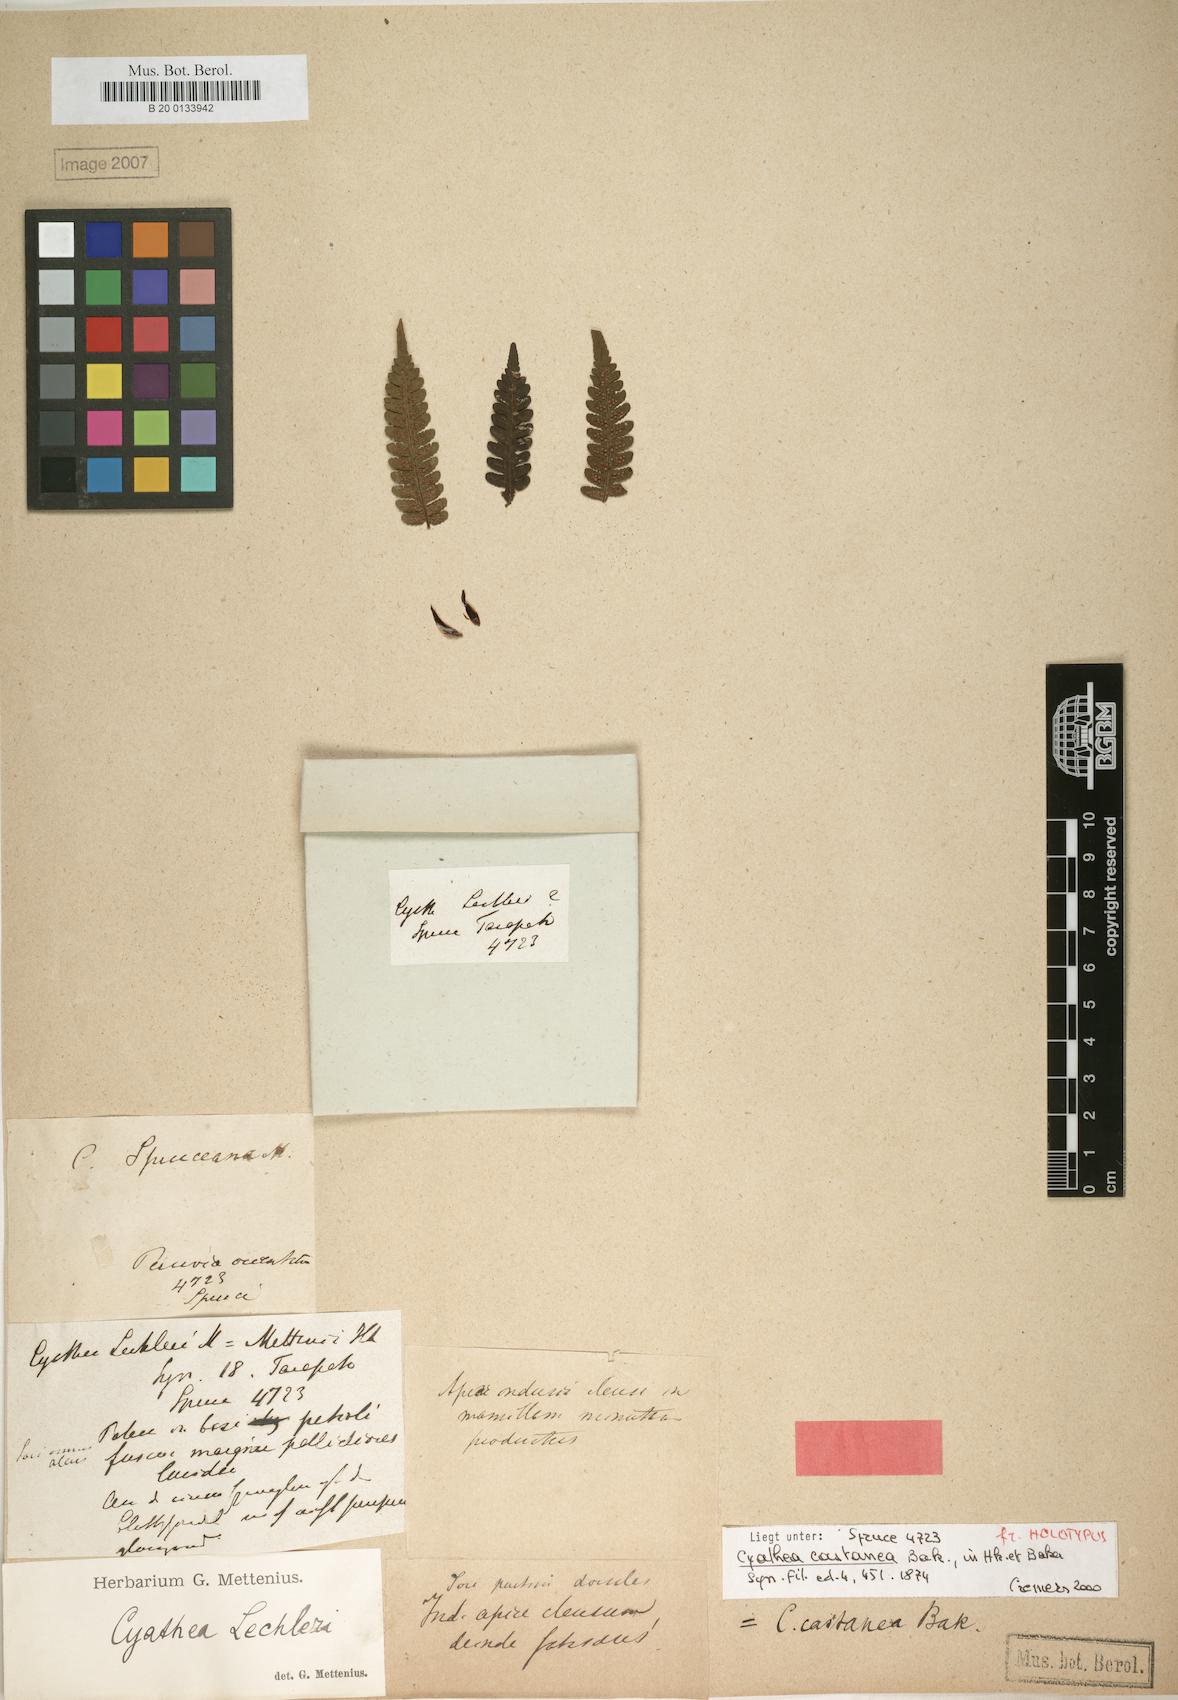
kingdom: Plantae
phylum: Tracheophyta
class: Polypodiopsida
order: Cyatheales
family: Cyatheaceae
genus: Cyathea
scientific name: Cyathea lechleri
